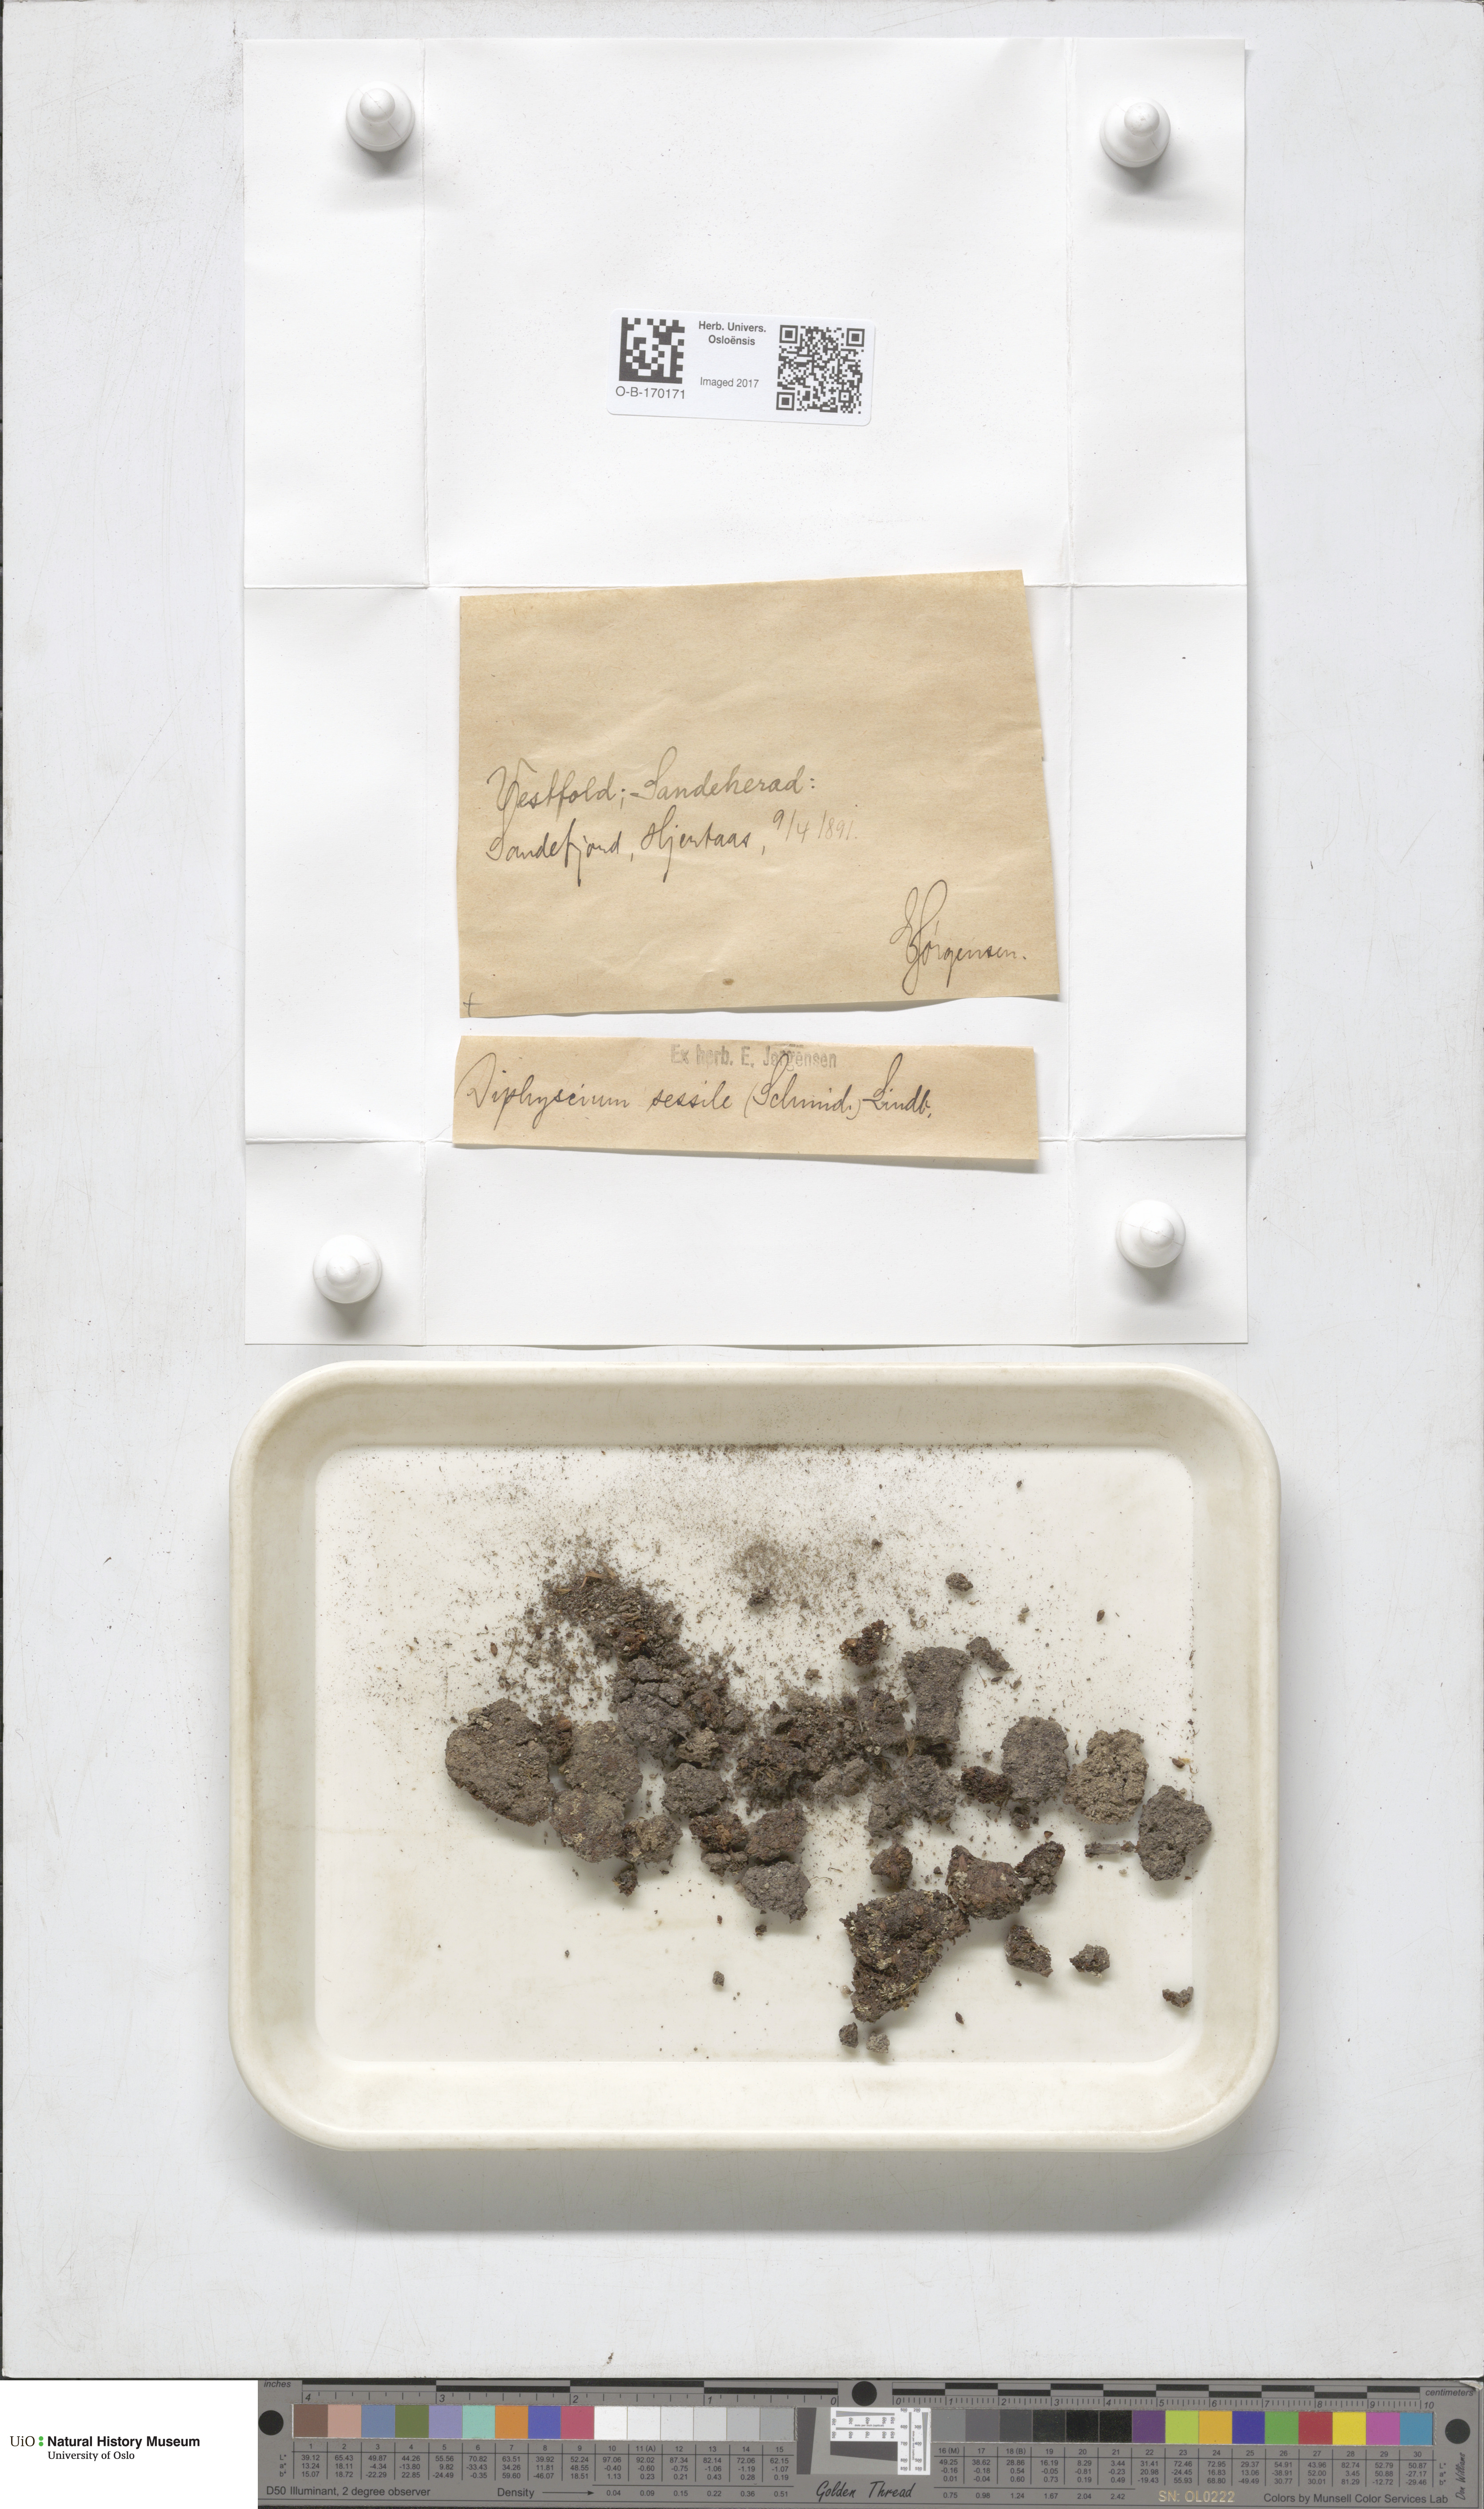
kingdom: Plantae
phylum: Bryophyta
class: Bryopsida
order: Diphysciales
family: Diphysciaceae
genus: Diphyscium
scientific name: Diphyscium foliosum
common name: Nut moss
